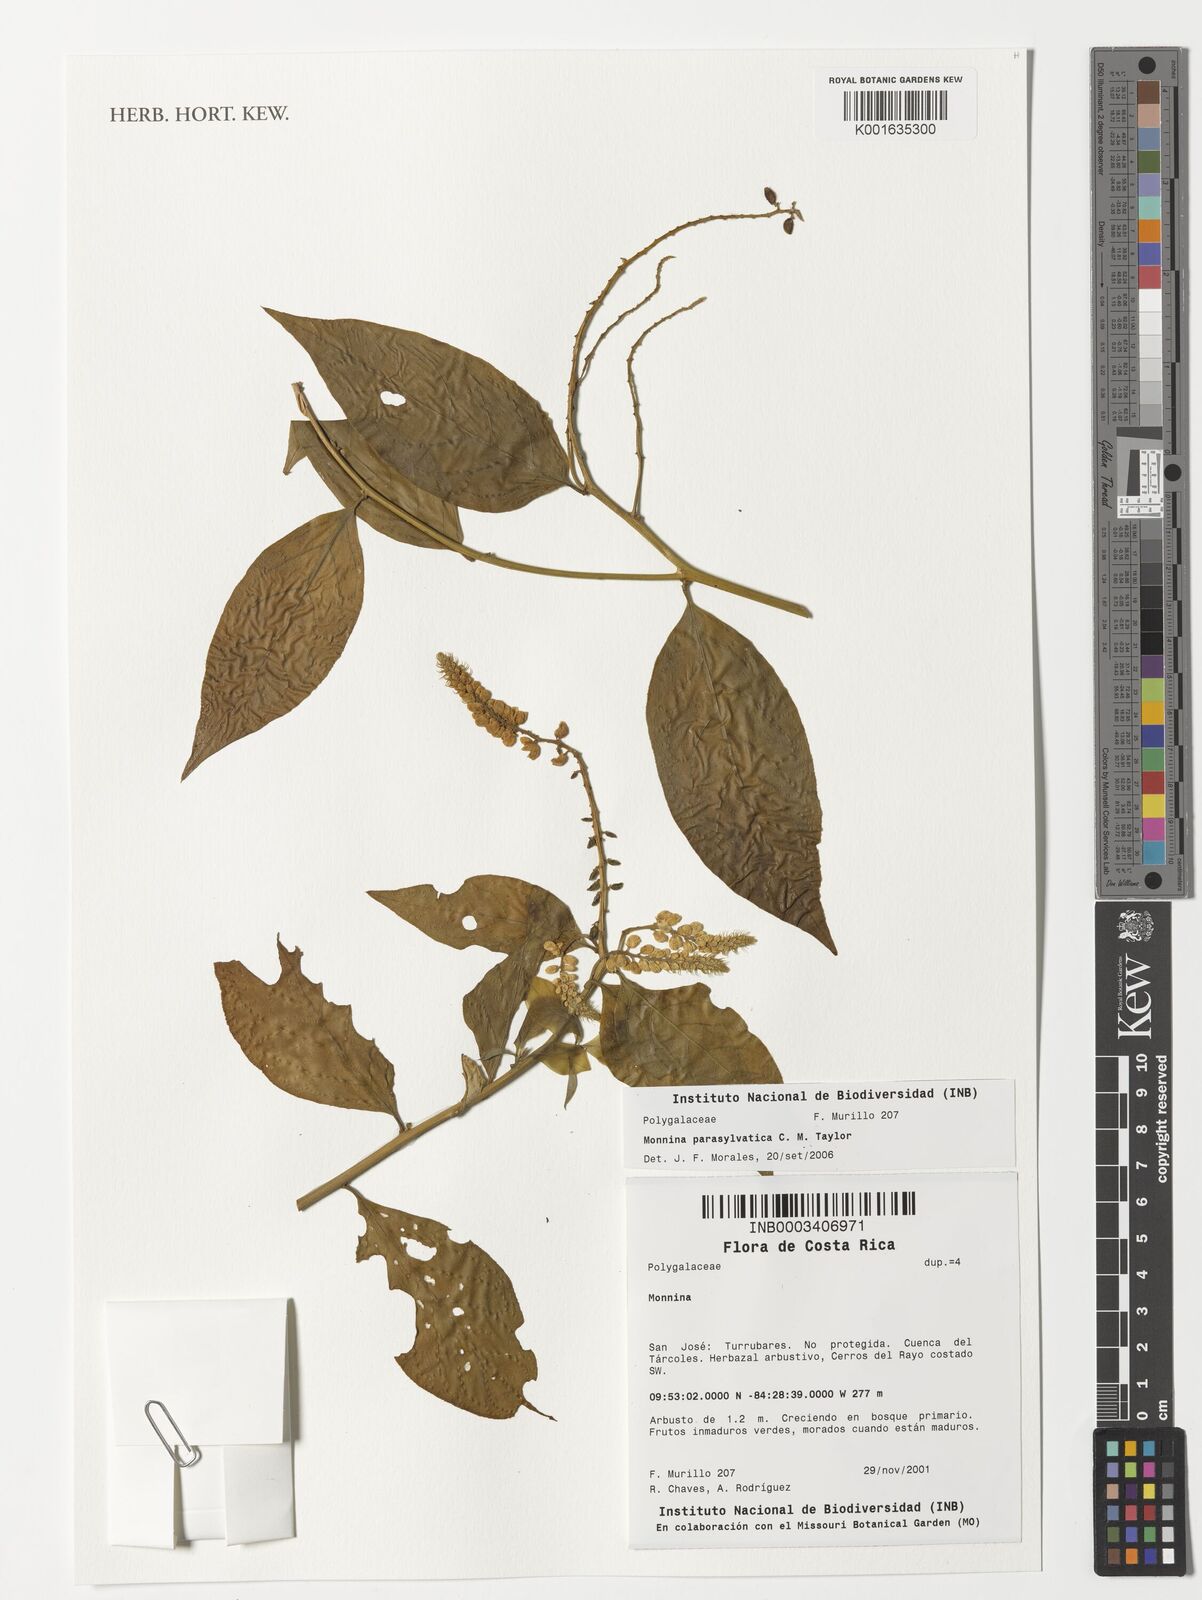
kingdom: Plantae
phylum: Tracheophyta
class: Magnoliopsida
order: Fabales
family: Polygalaceae
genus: Monnina
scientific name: Monnina parasylvatica
